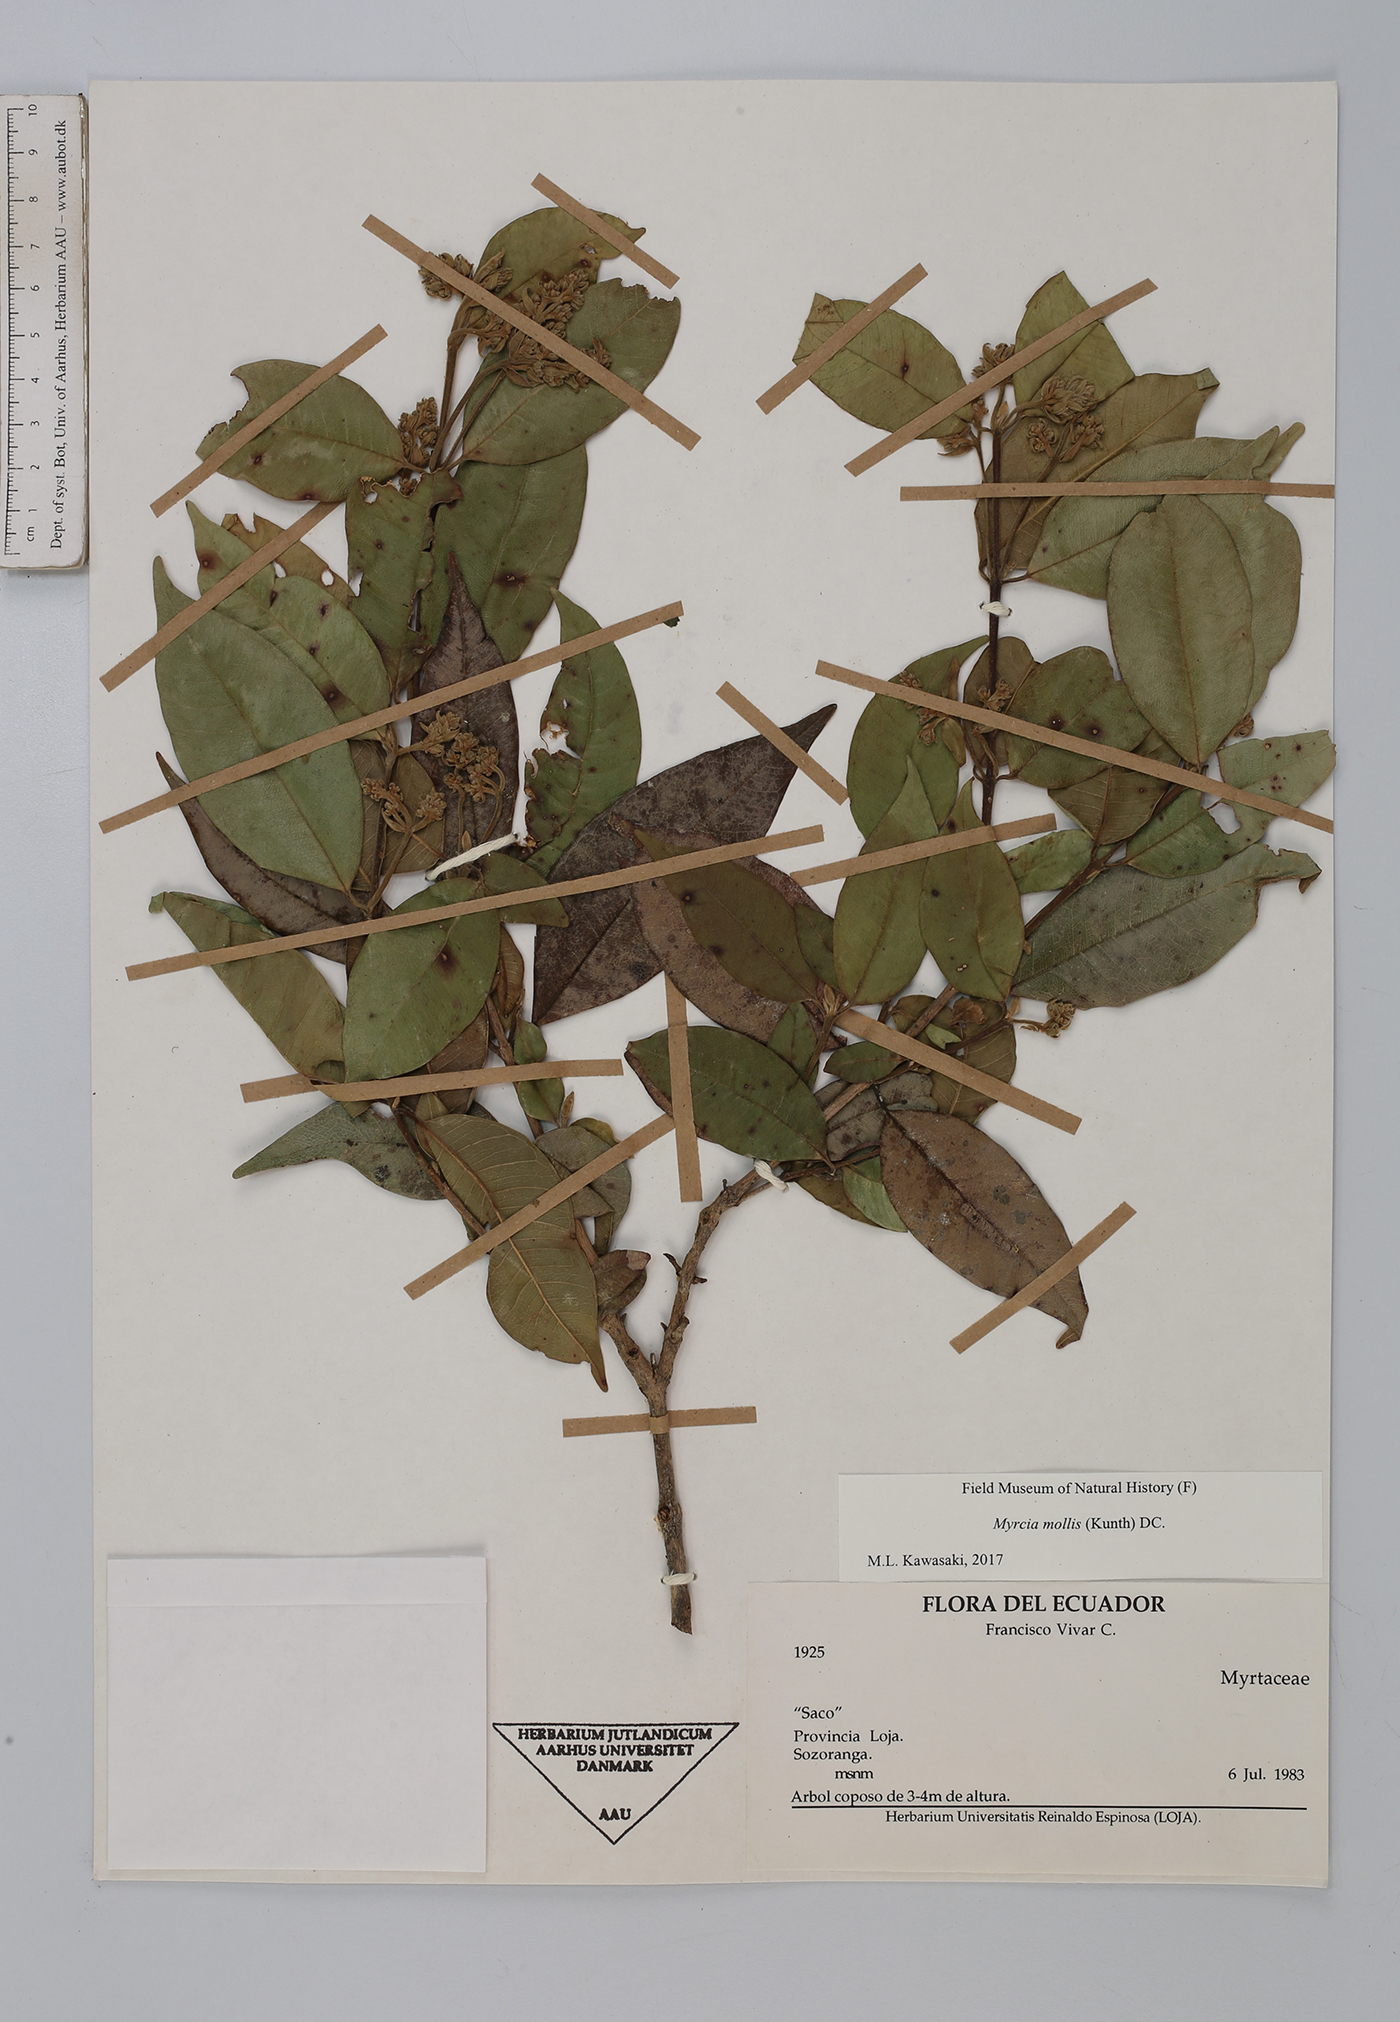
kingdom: Plantae
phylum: Tracheophyta
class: Magnoliopsida
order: Myrtales
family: Myrtaceae
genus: Myrcia
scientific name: Myrcia mollis
